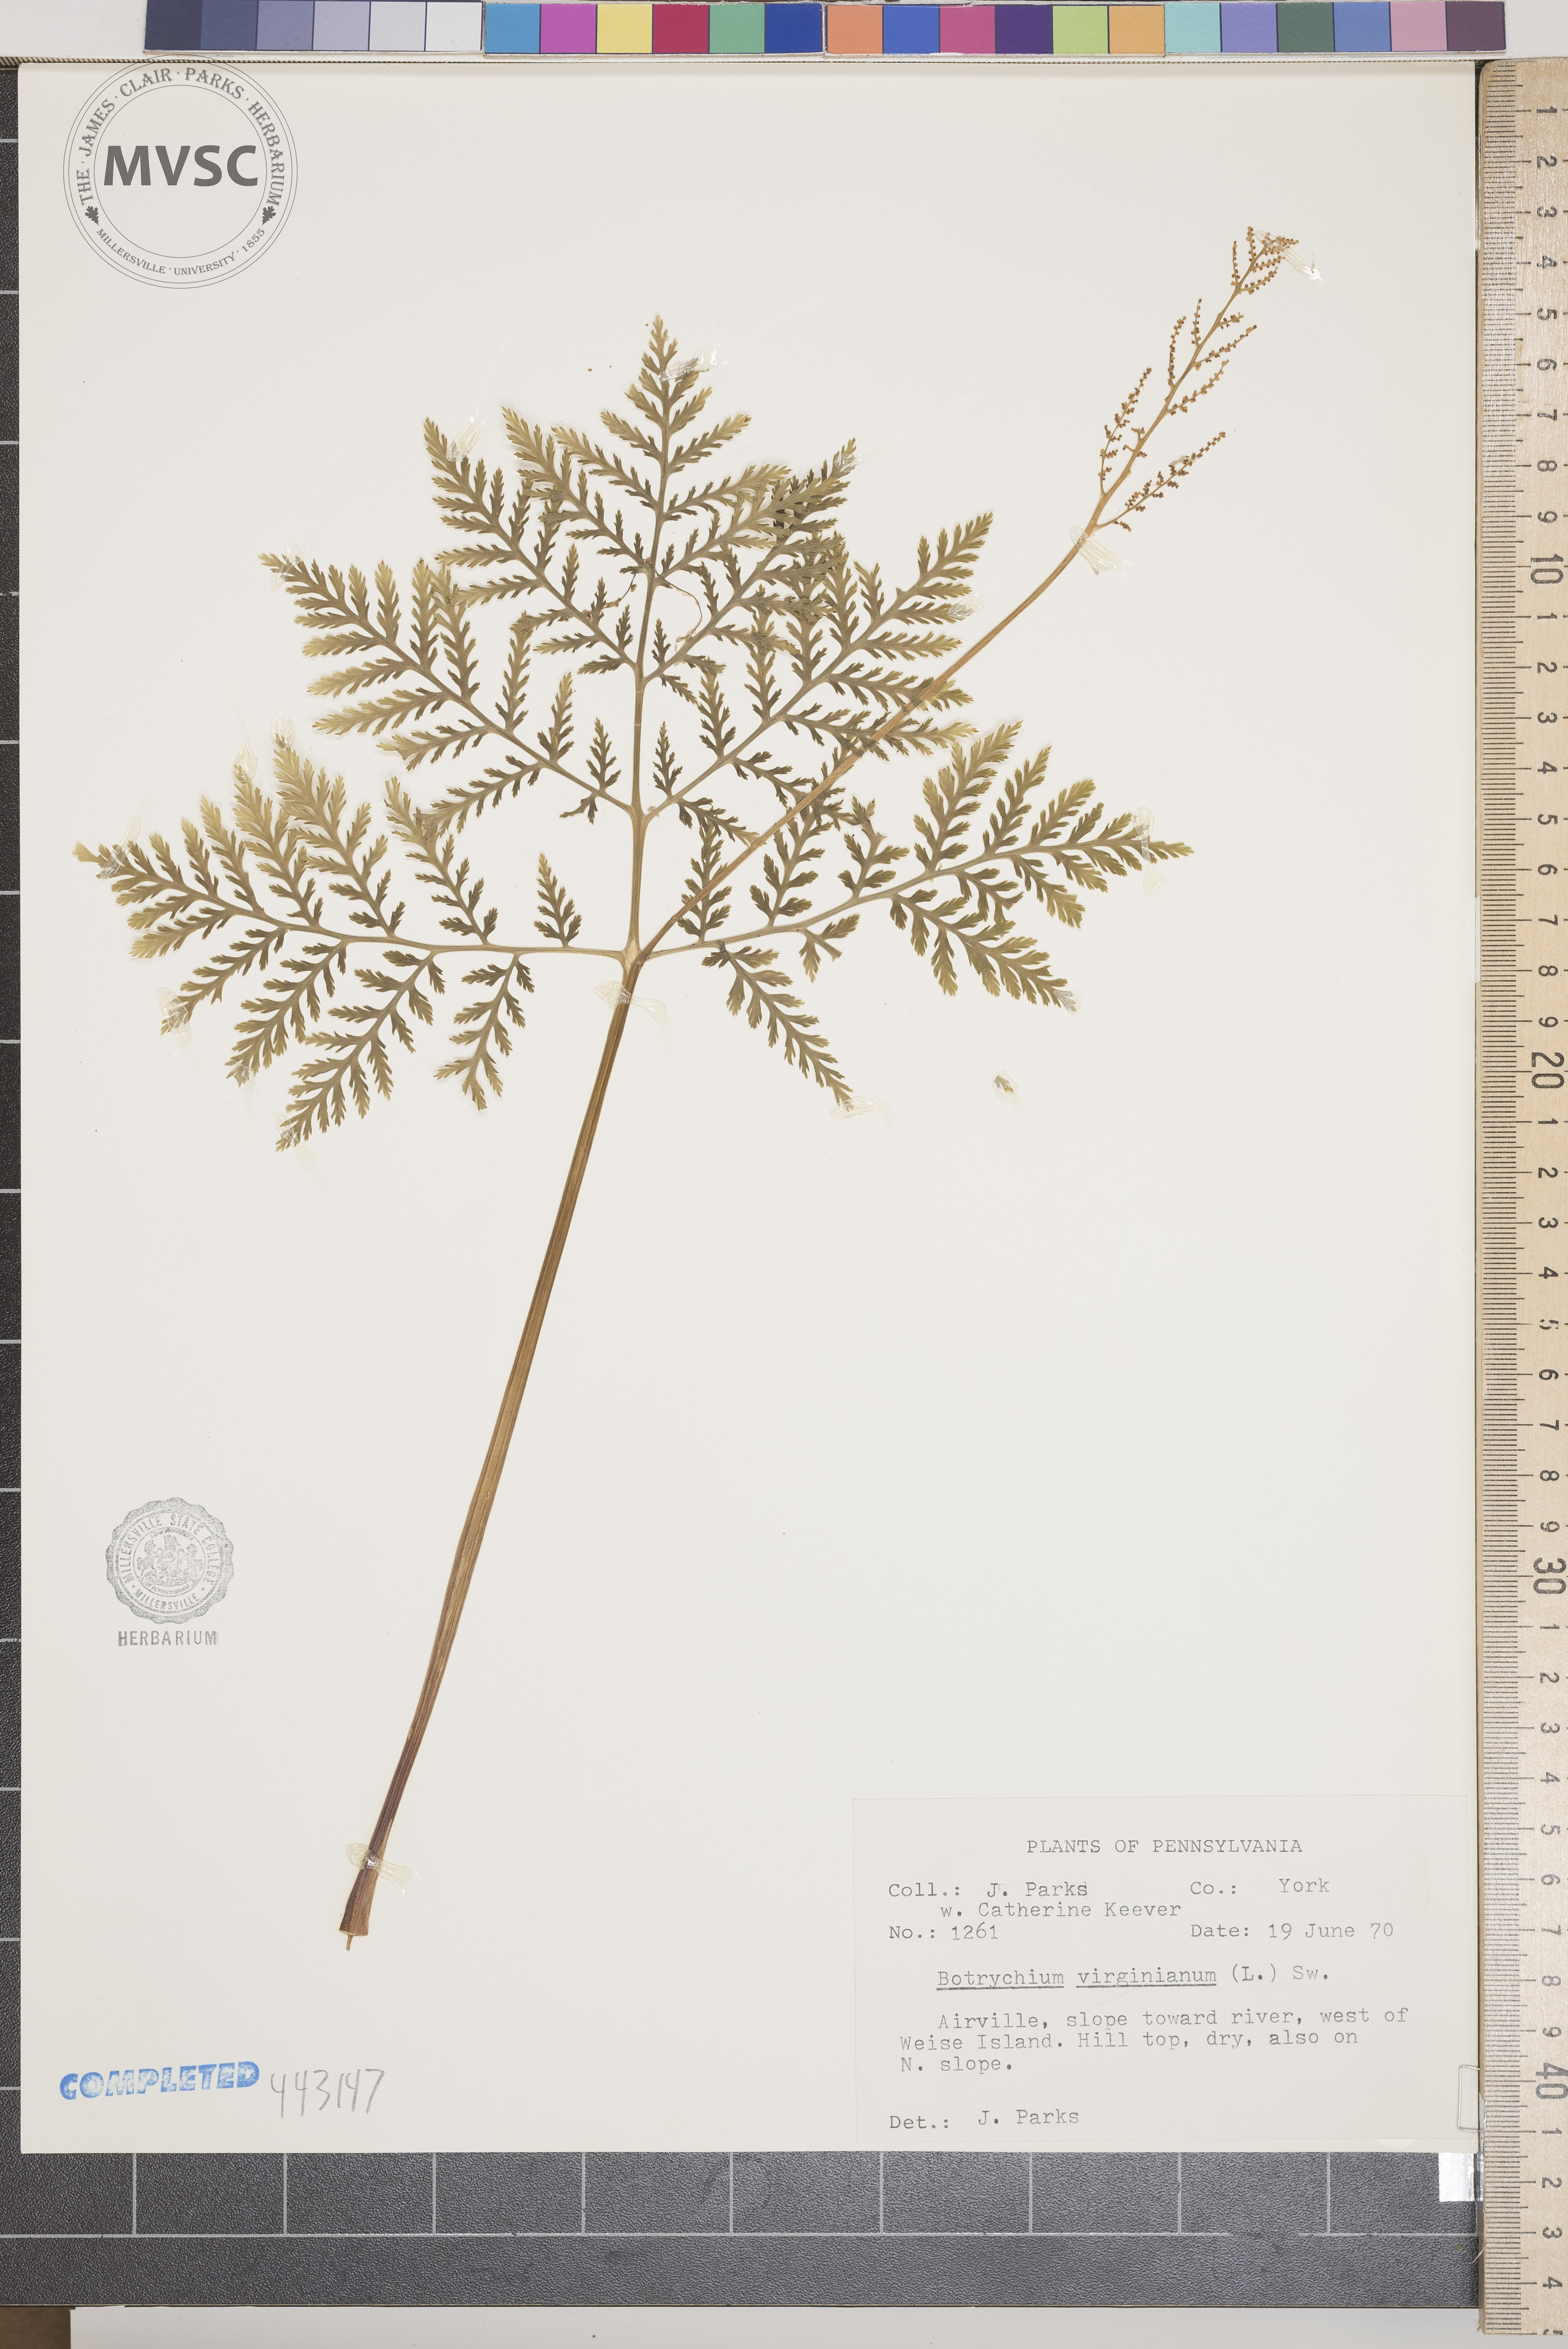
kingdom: Plantae
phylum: Tracheophyta
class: Polypodiopsida
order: Ophioglossales
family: Ophioglossaceae
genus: Botrypus
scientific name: Botrypus virginianus
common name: Common grapefern
